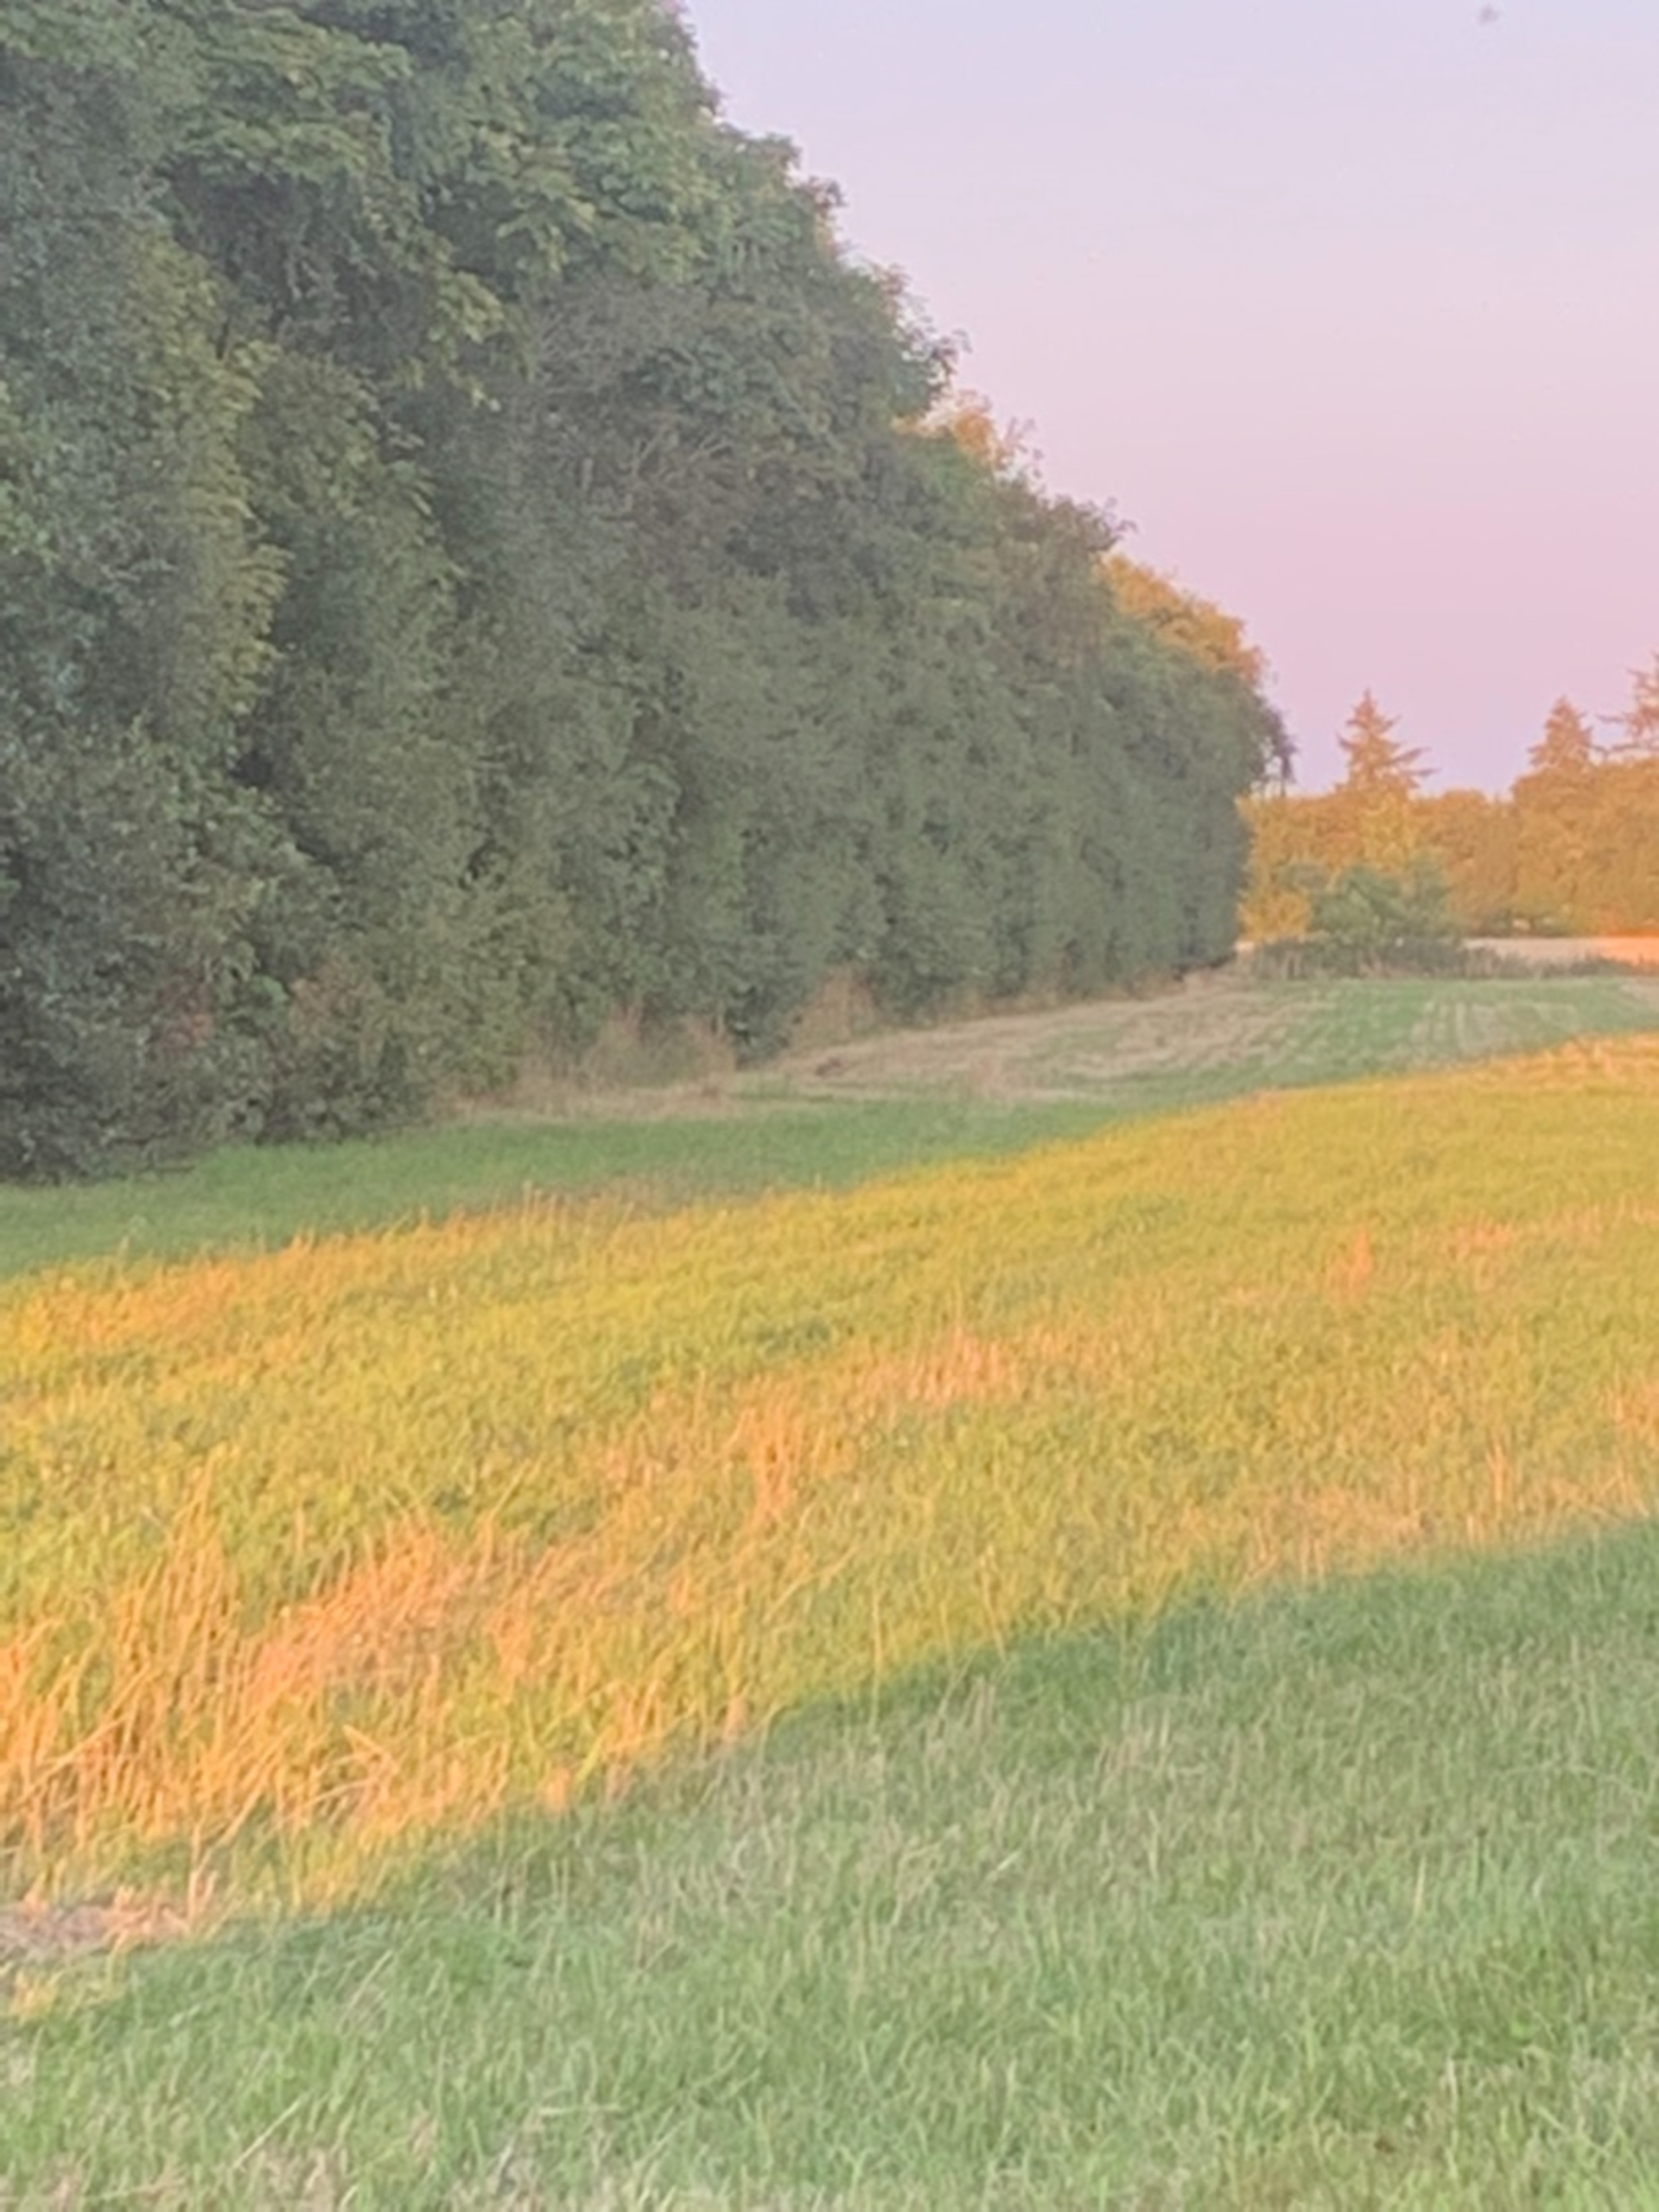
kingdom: Animalia
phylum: Chordata
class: Mammalia
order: Lagomorpha
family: Leporidae
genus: Lepus
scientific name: Lepus europaeus
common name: Hare
